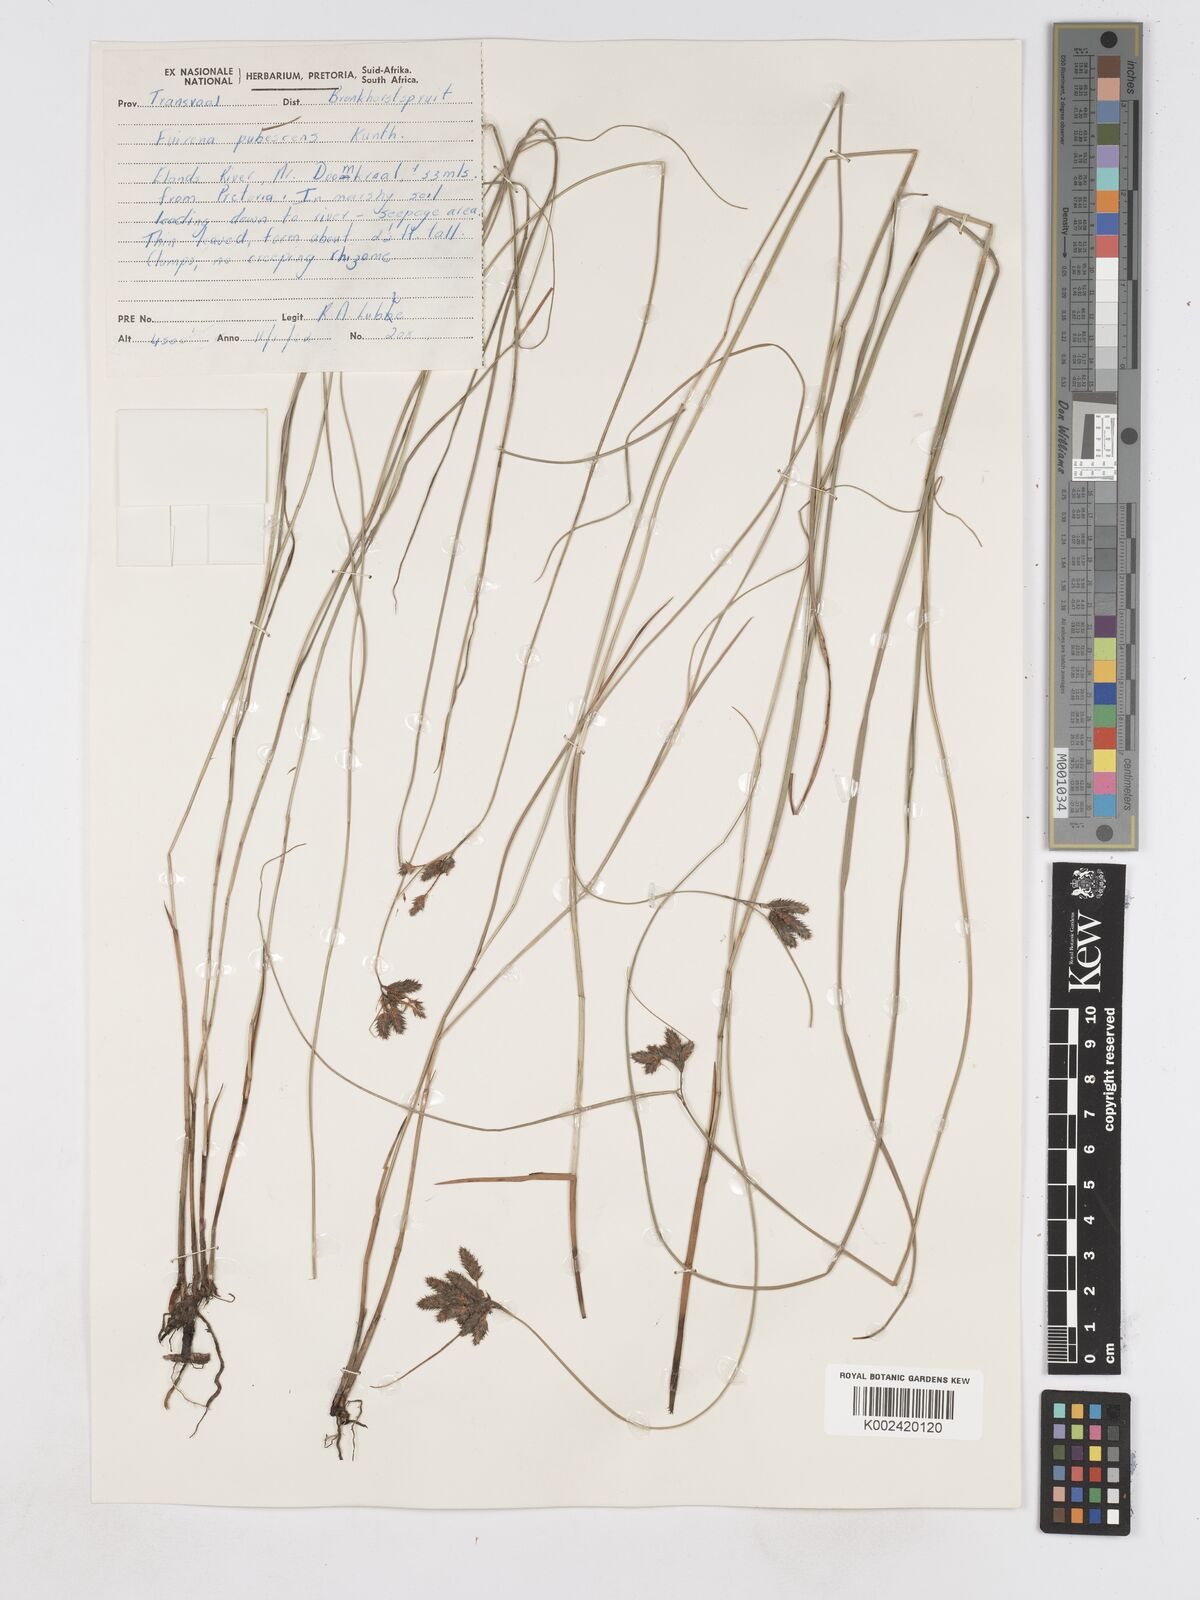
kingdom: Plantae
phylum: Tracheophyta
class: Liliopsida
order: Poales
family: Cyperaceae
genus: Fuirena
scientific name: Fuirena pubescens
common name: Hairy sedge
